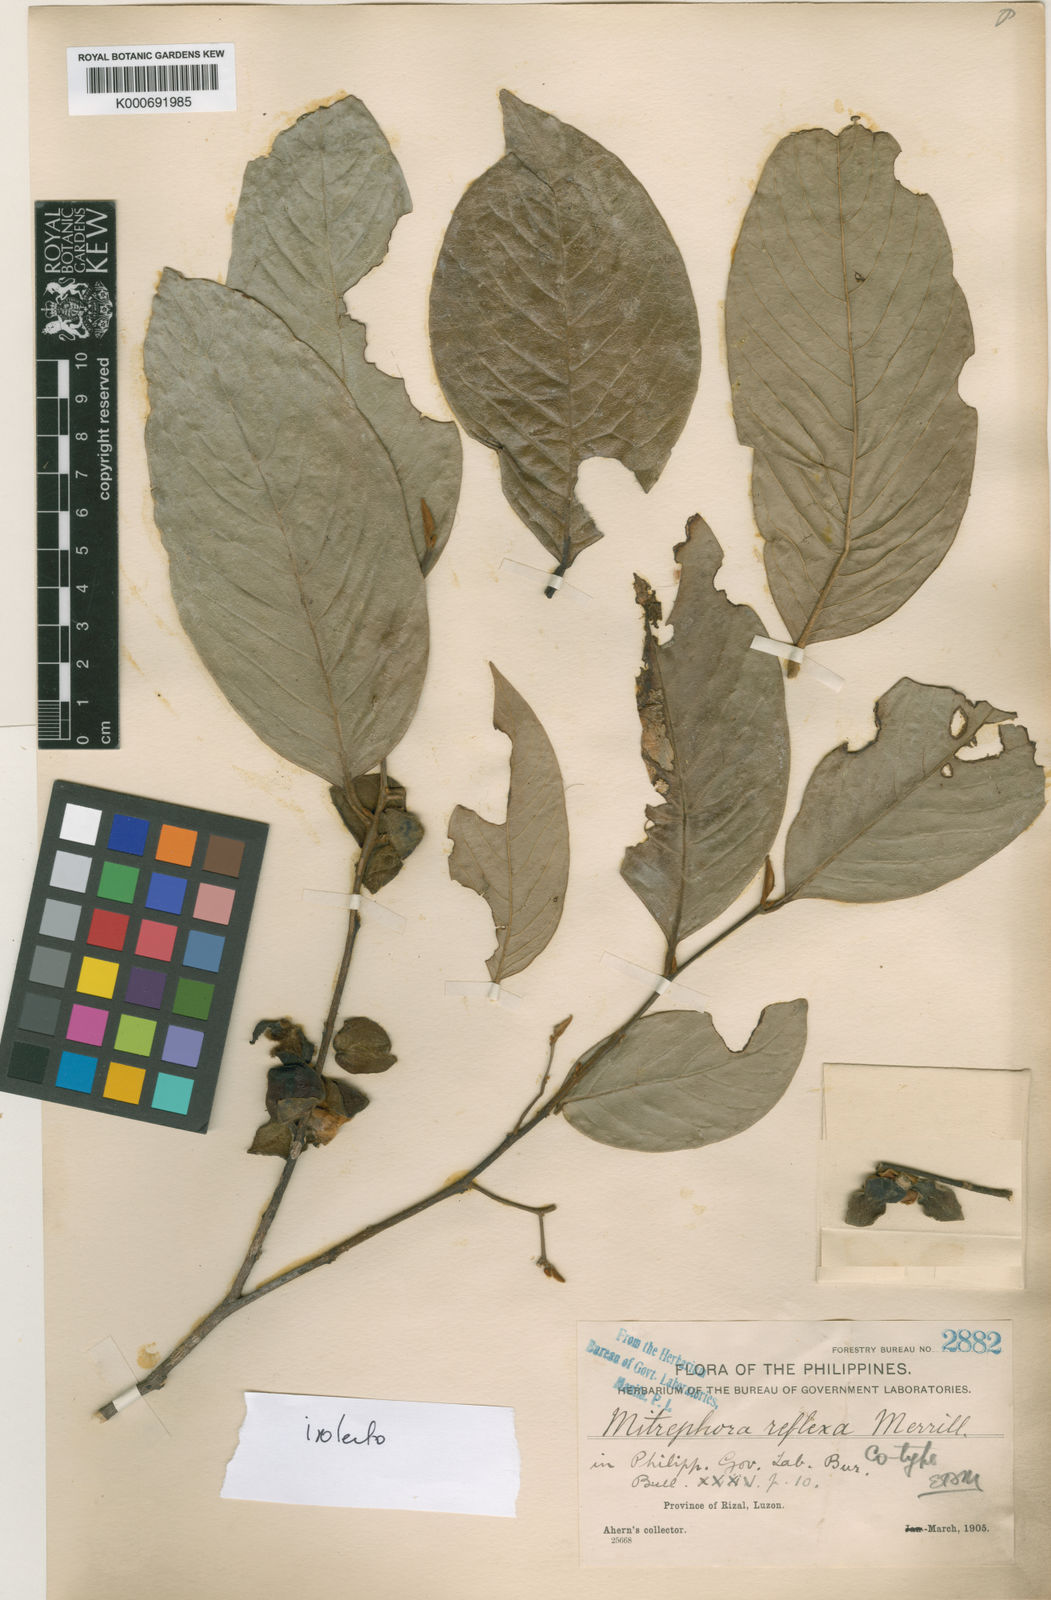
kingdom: Plantae
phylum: Tracheophyta
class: Magnoliopsida
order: Magnoliales
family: Annonaceae
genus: Mitrephora
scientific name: Mitrephora reflexa
